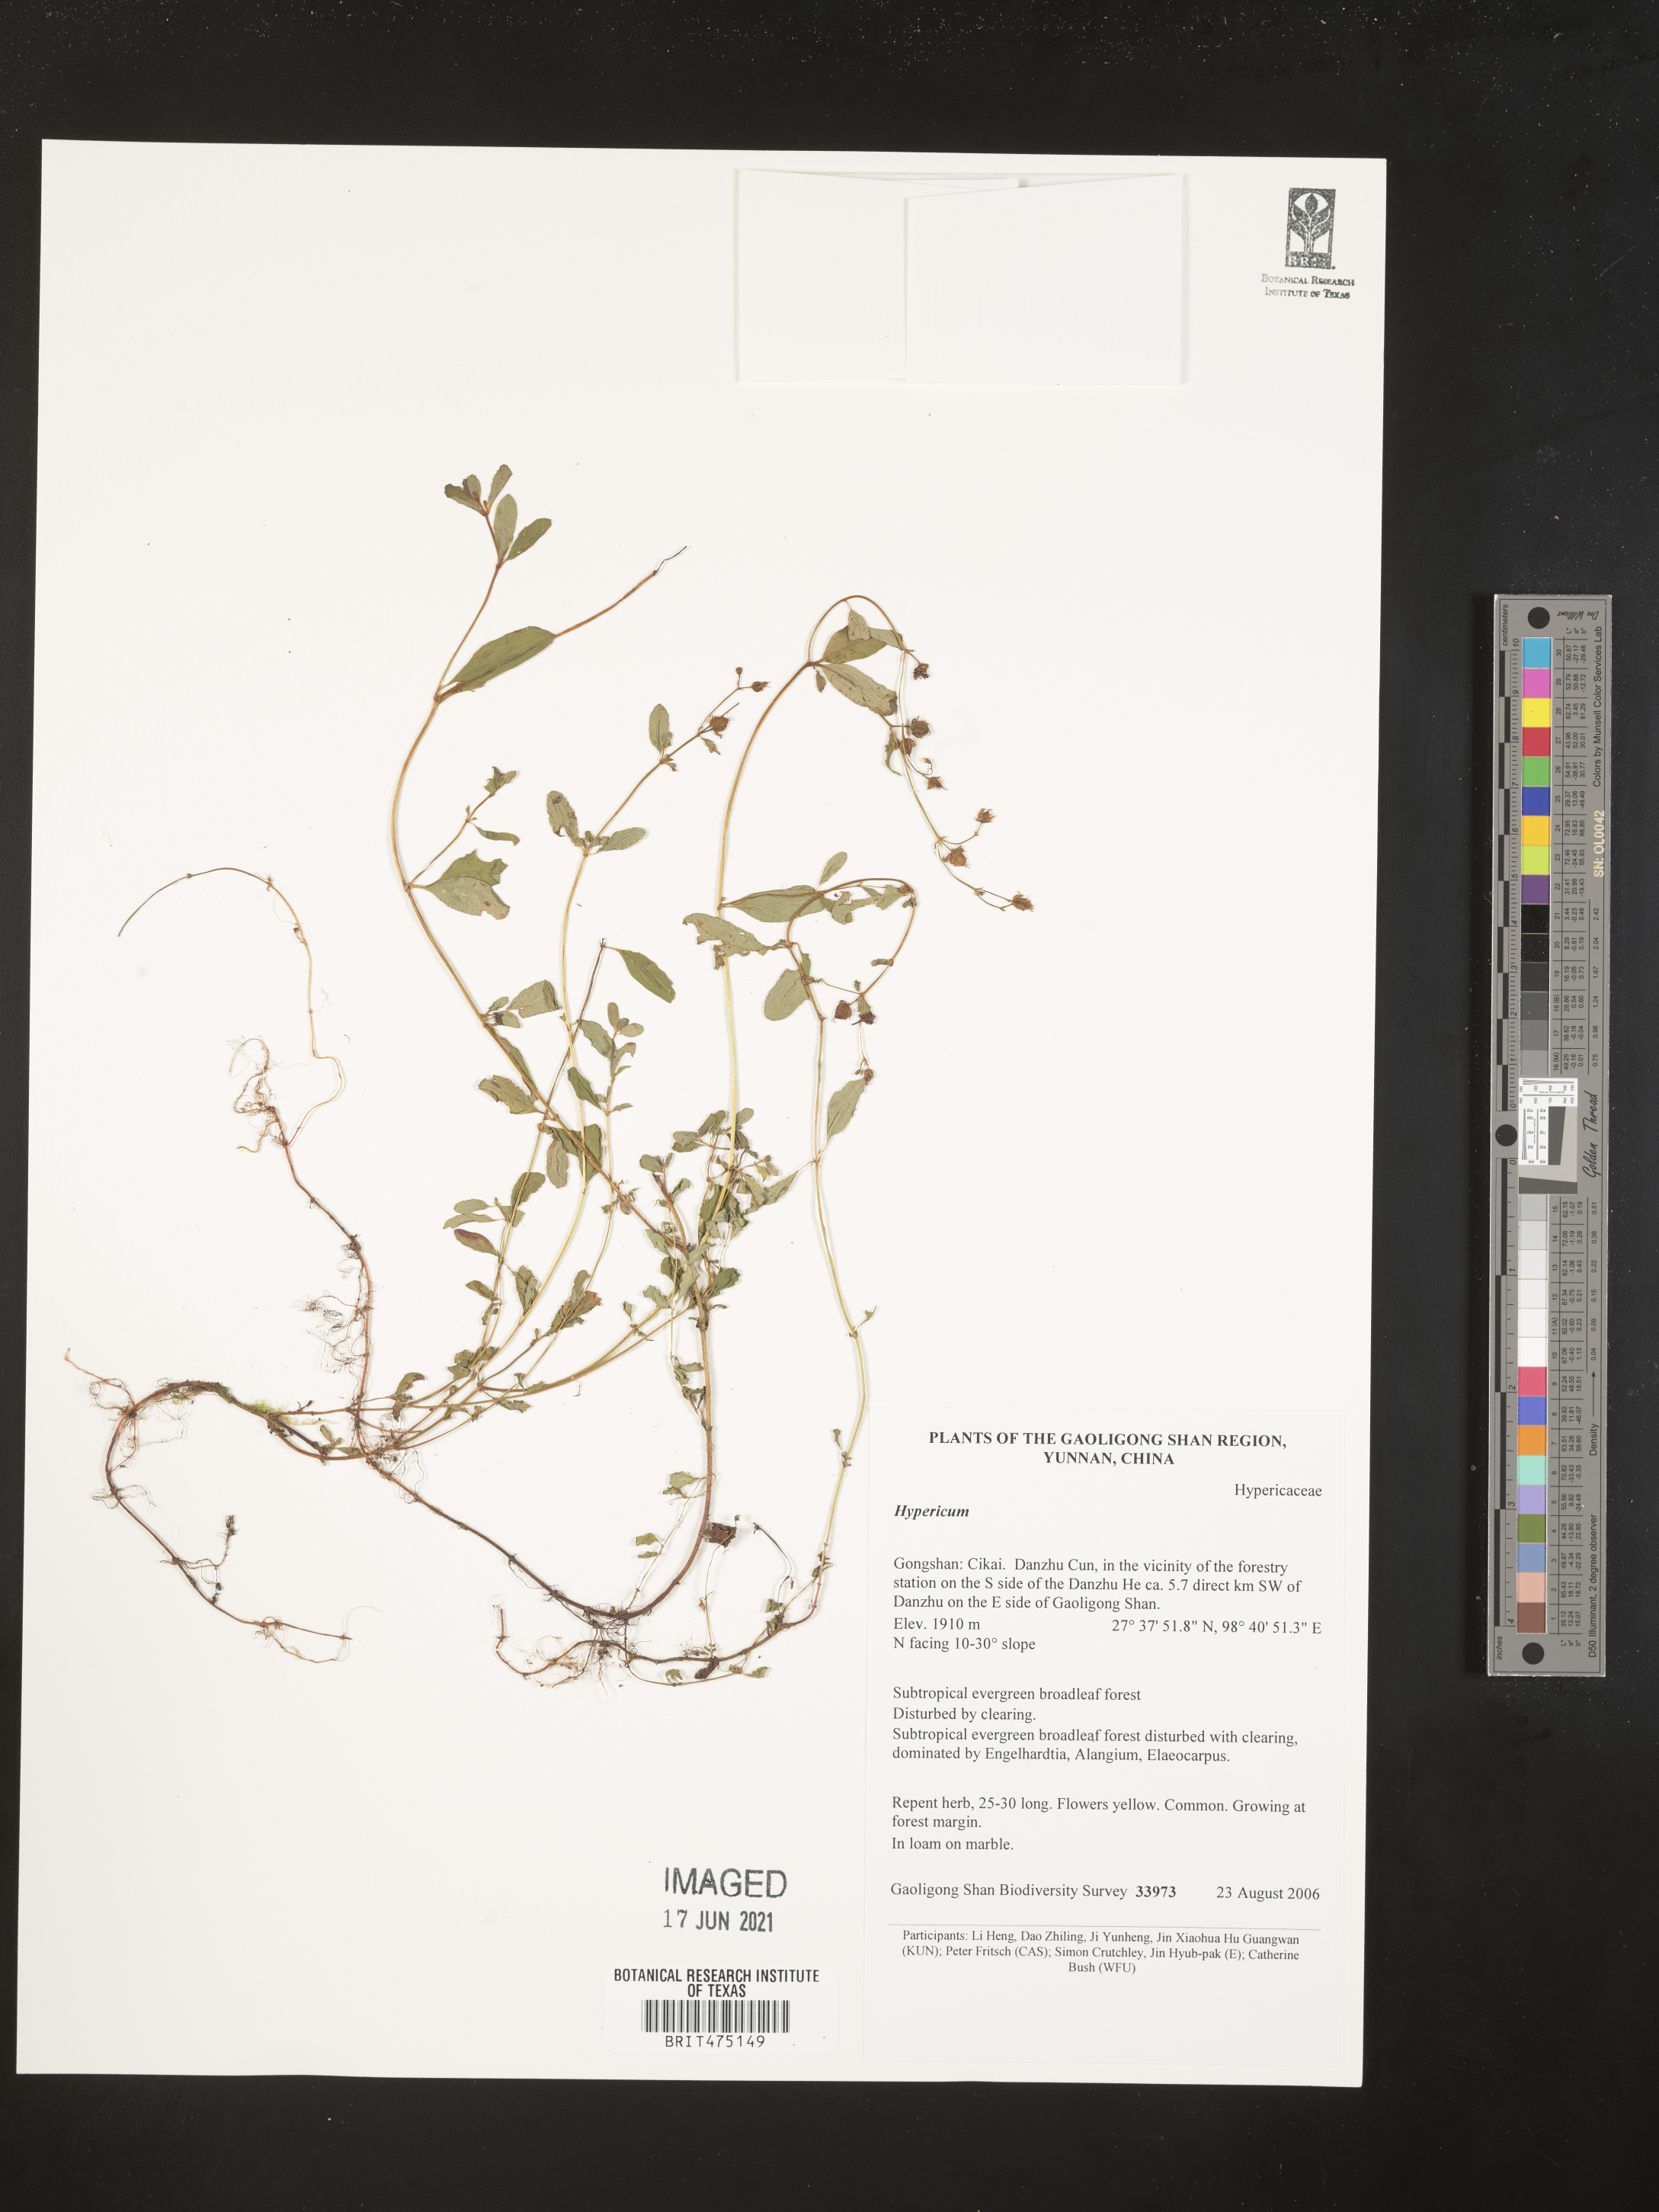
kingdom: Plantae
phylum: Tracheophyta
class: Magnoliopsida
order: Malpighiales
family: Hypericaceae
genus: Hypericum
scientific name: Hypericum
